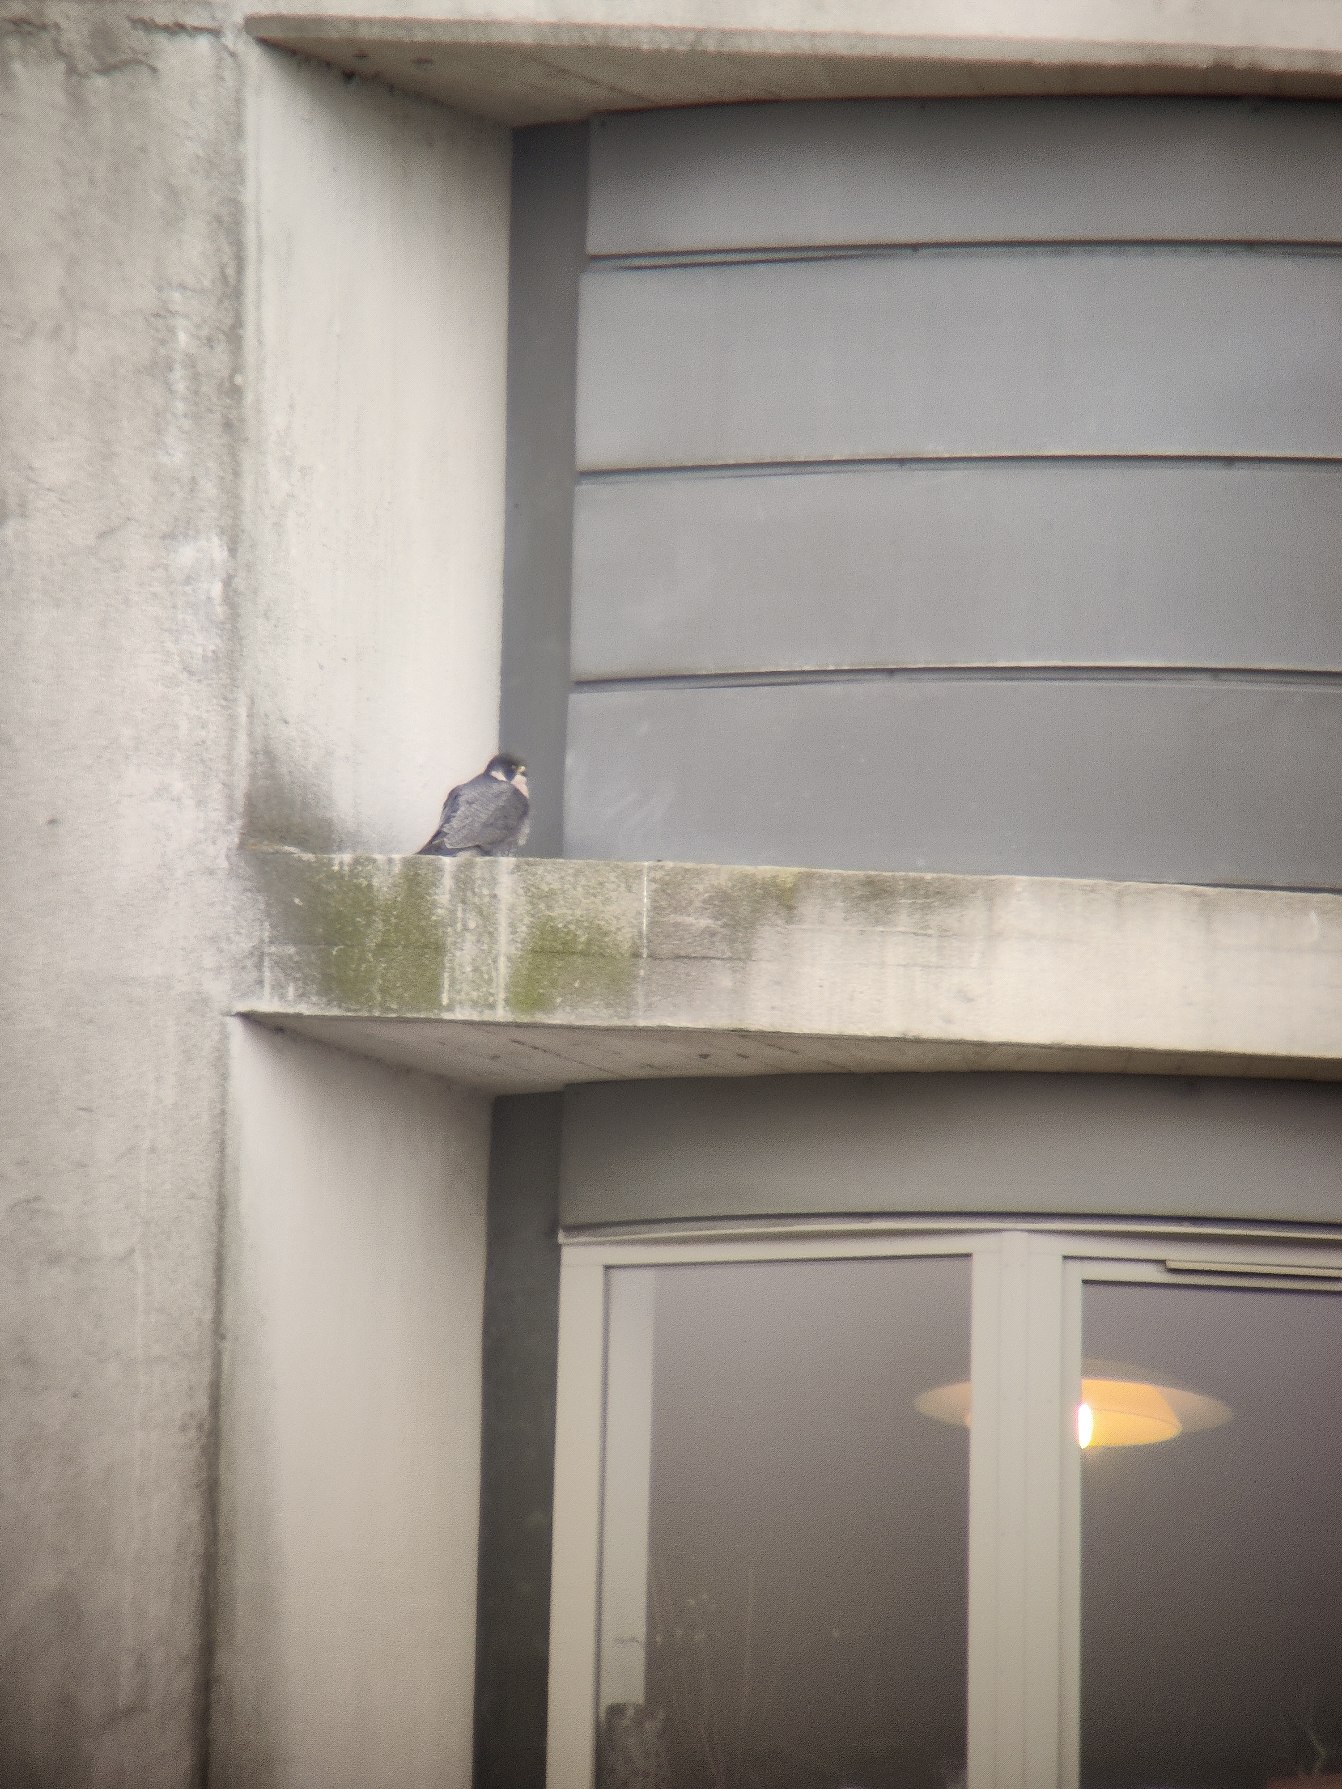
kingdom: Animalia
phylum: Chordata
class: Aves
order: Falconiformes
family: Falconidae
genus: Falco
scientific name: Falco peregrinus
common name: Vandrefalk
